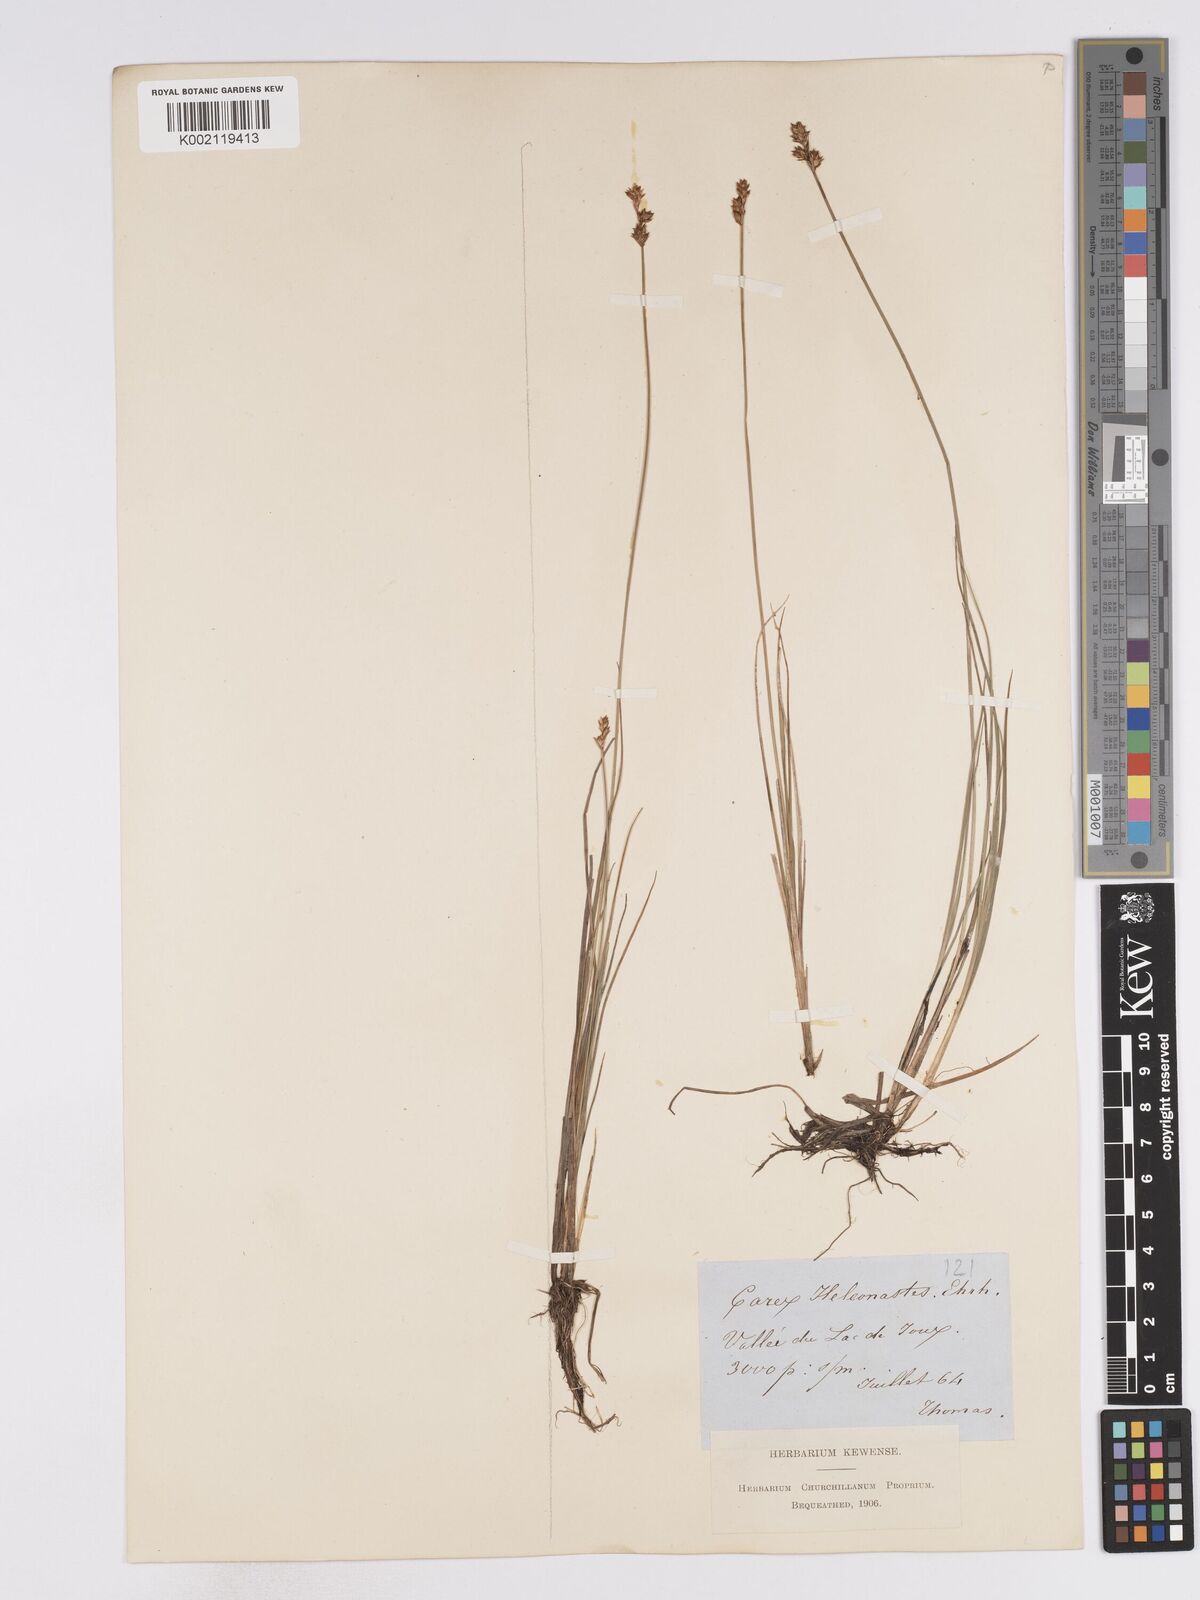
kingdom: Plantae
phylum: Tracheophyta
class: Liliopsida
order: Poales
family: Cyperaceae
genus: Carex
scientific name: Carex heleonastes
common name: Hudson bay sedge
